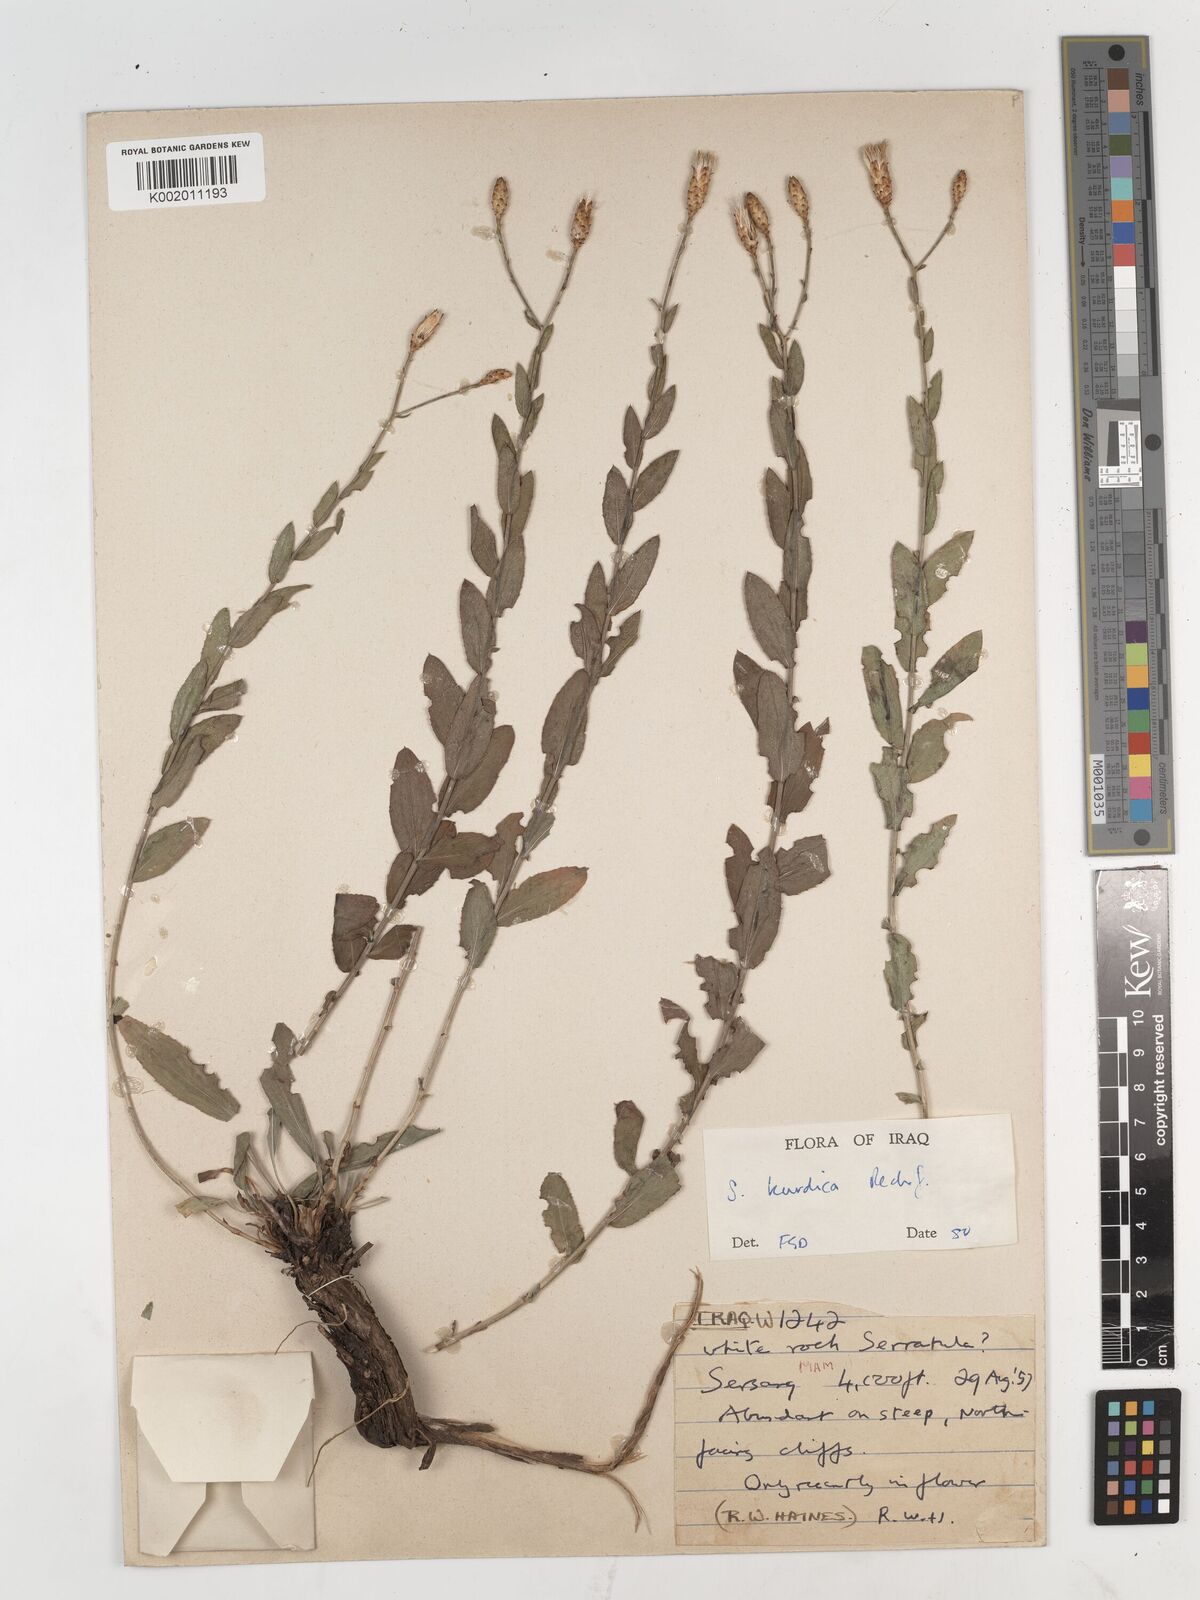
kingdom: Plantae
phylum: Tracheophyta
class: Magnoliopsida
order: Asterales
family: Asteraceae
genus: Staehelina
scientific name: Staehelina
